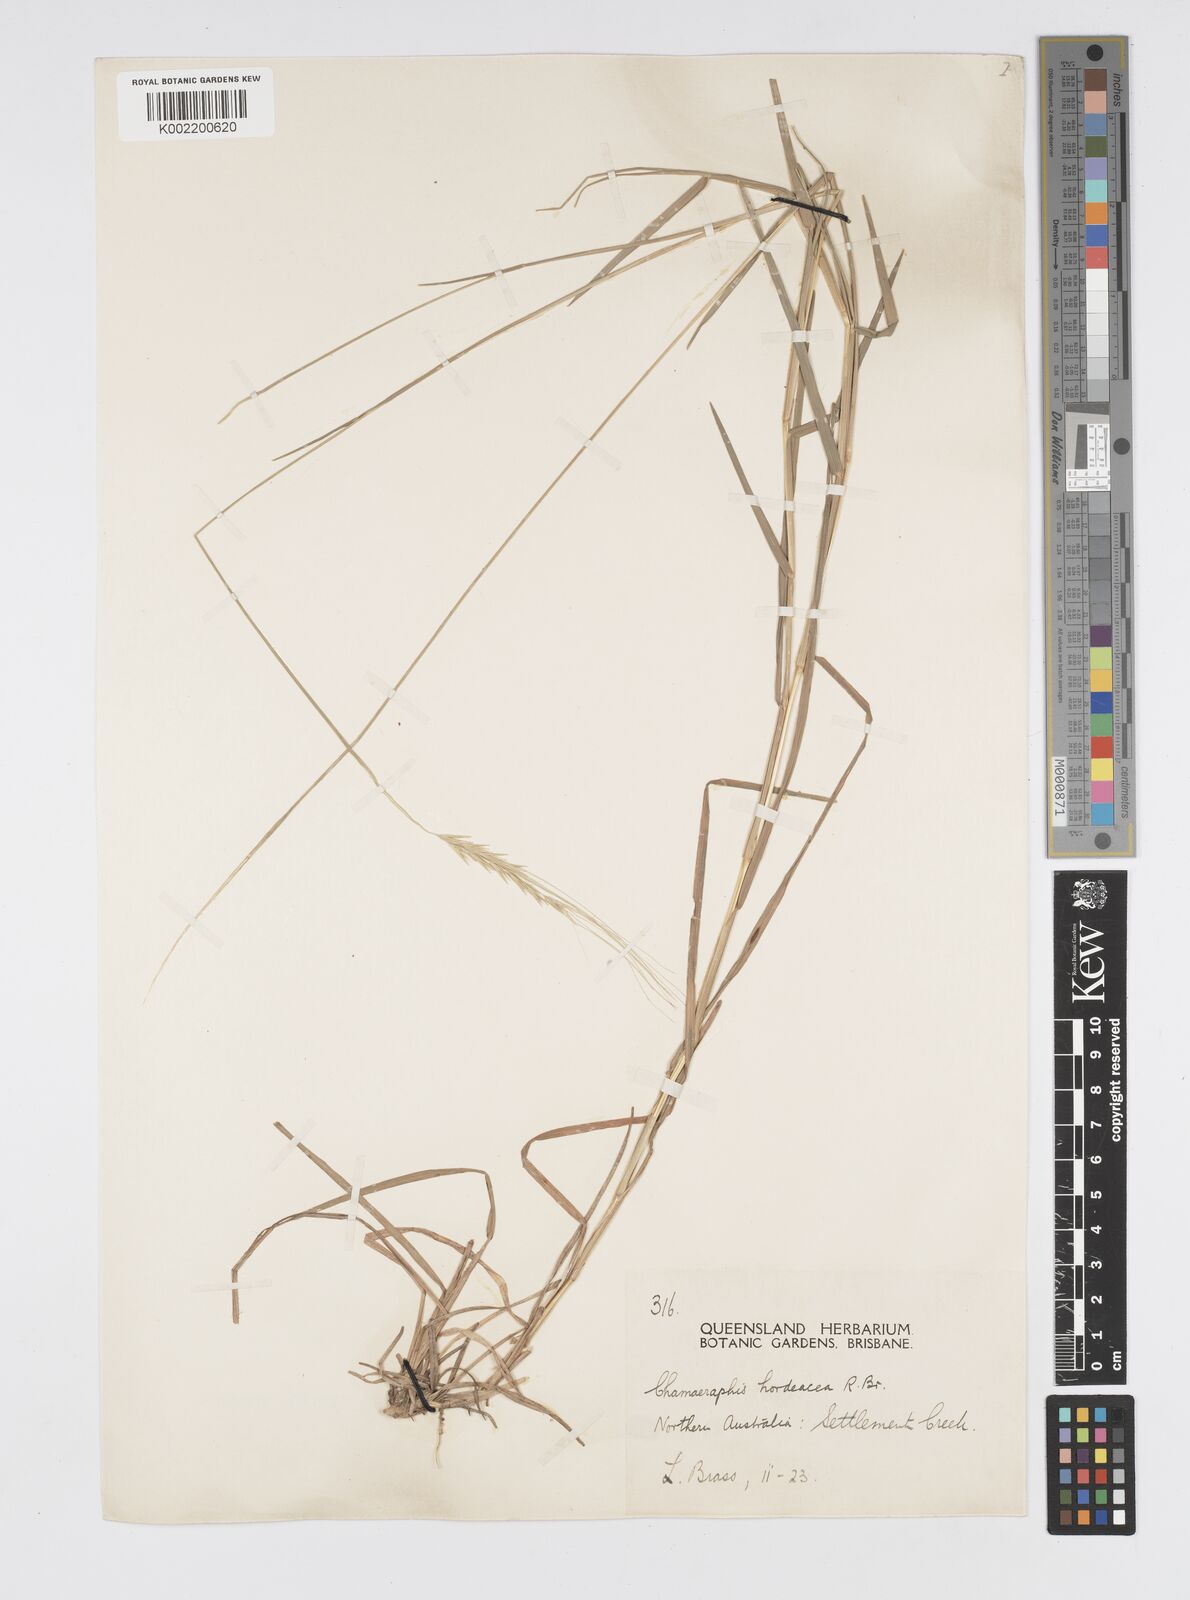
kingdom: Plantae
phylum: Tracheophyta
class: Liliopsida
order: Poales
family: Poaceae
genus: Chamaeraphis
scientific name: Chamaeraphis hordeacea
